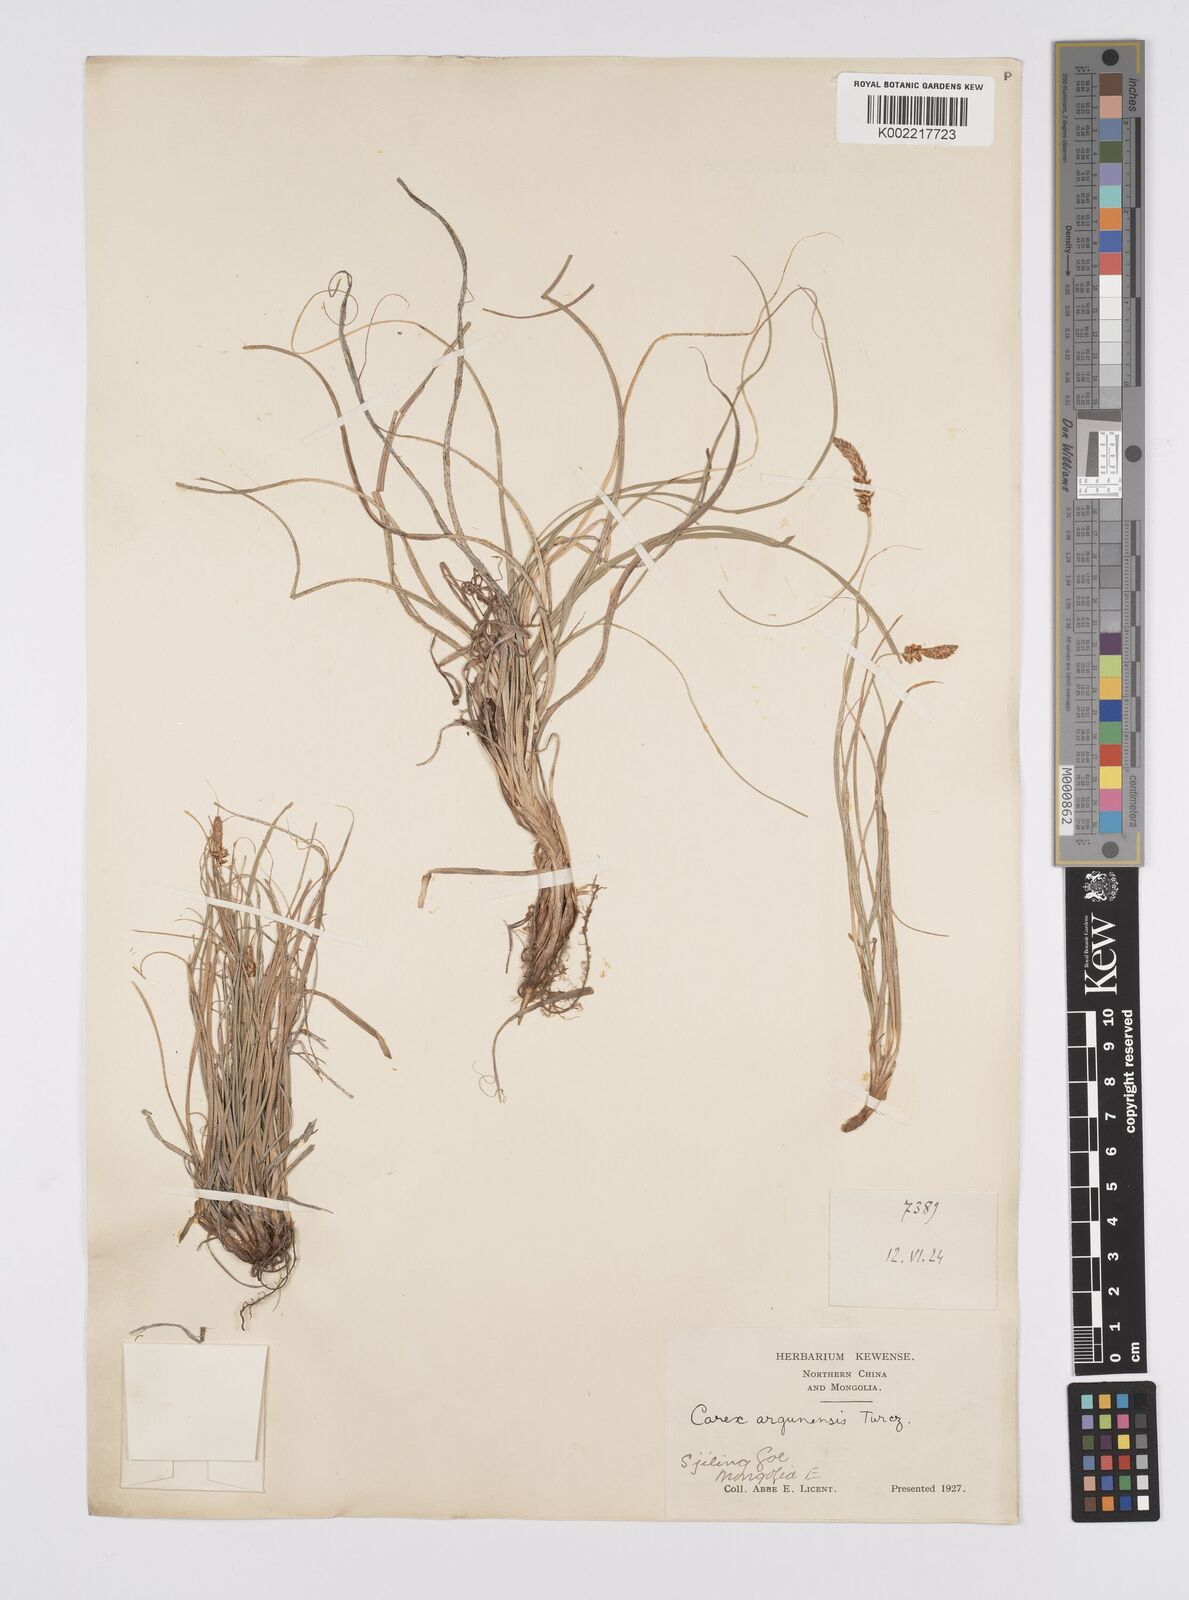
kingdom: Plantae
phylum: Tracheophyta
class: Liliopsida
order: Poales
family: Cyperaceae
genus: Carex
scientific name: Carex argunensis
